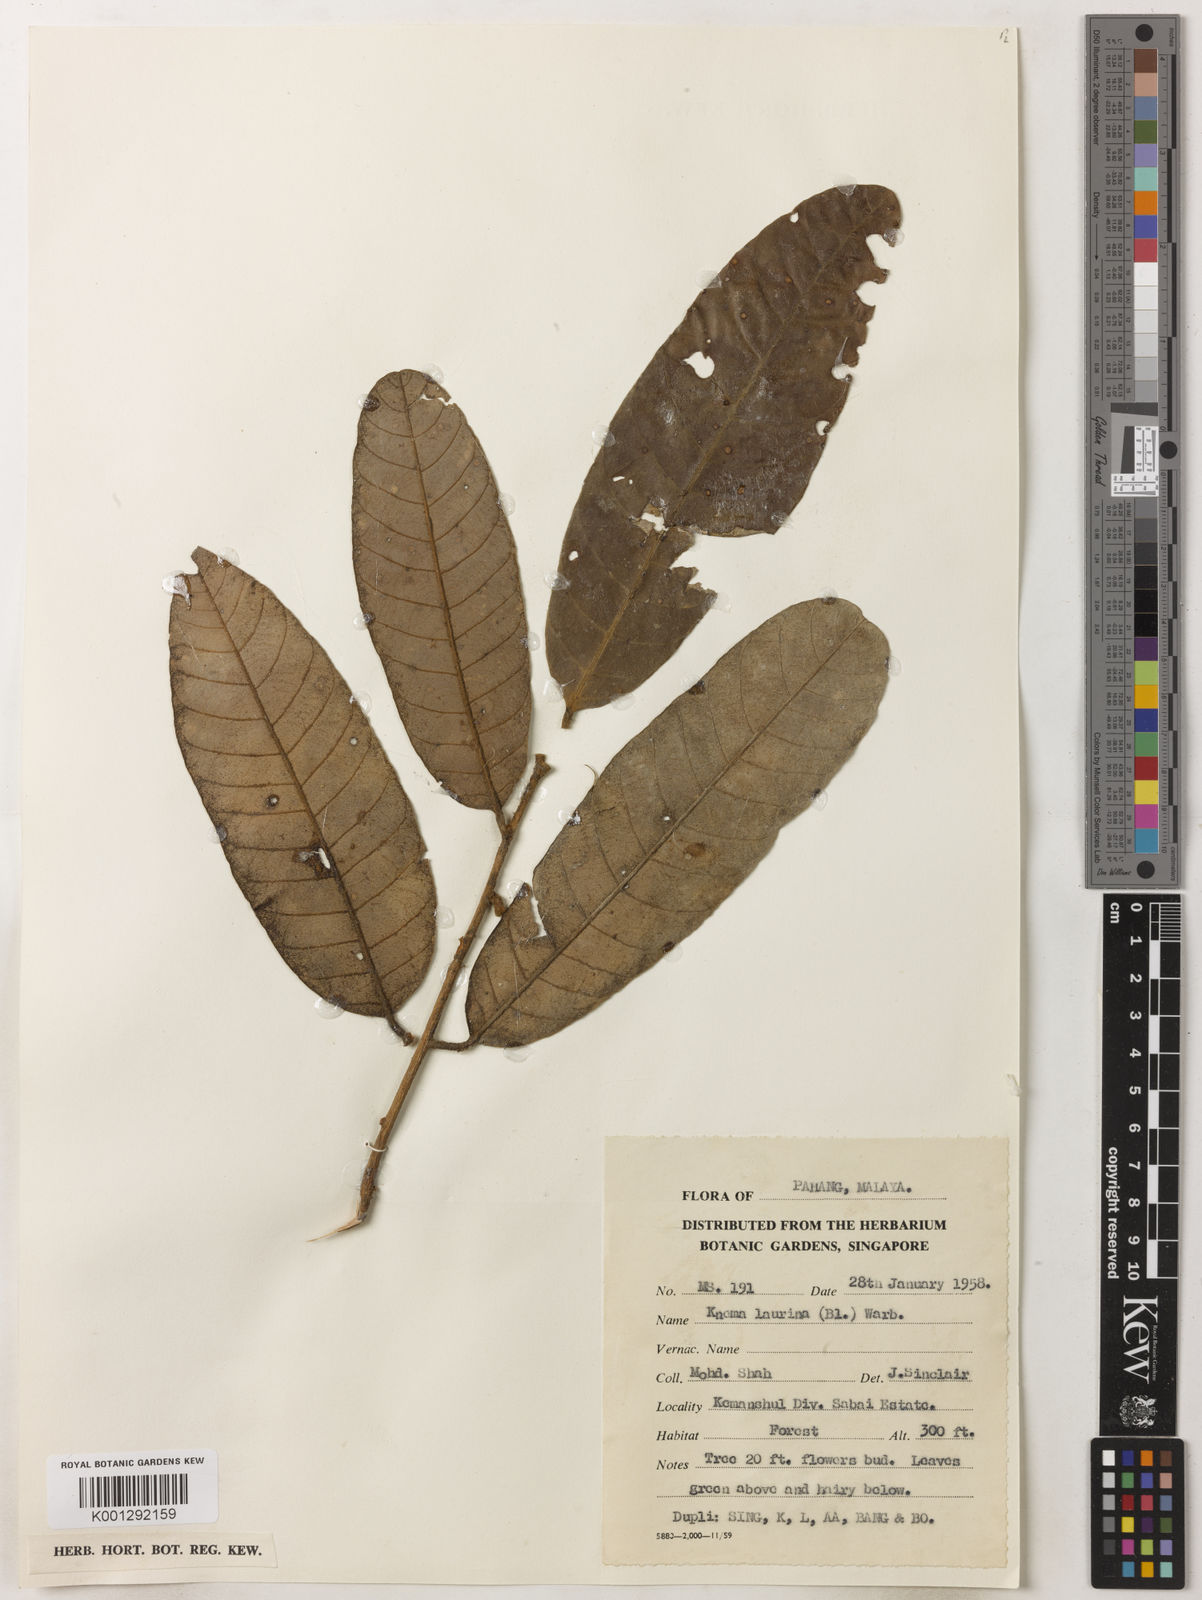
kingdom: Plantae
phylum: Tracheophyta
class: Magnoliopsida
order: Magnoliales
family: Myristicaceae
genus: Knema
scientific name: Knema laurina
